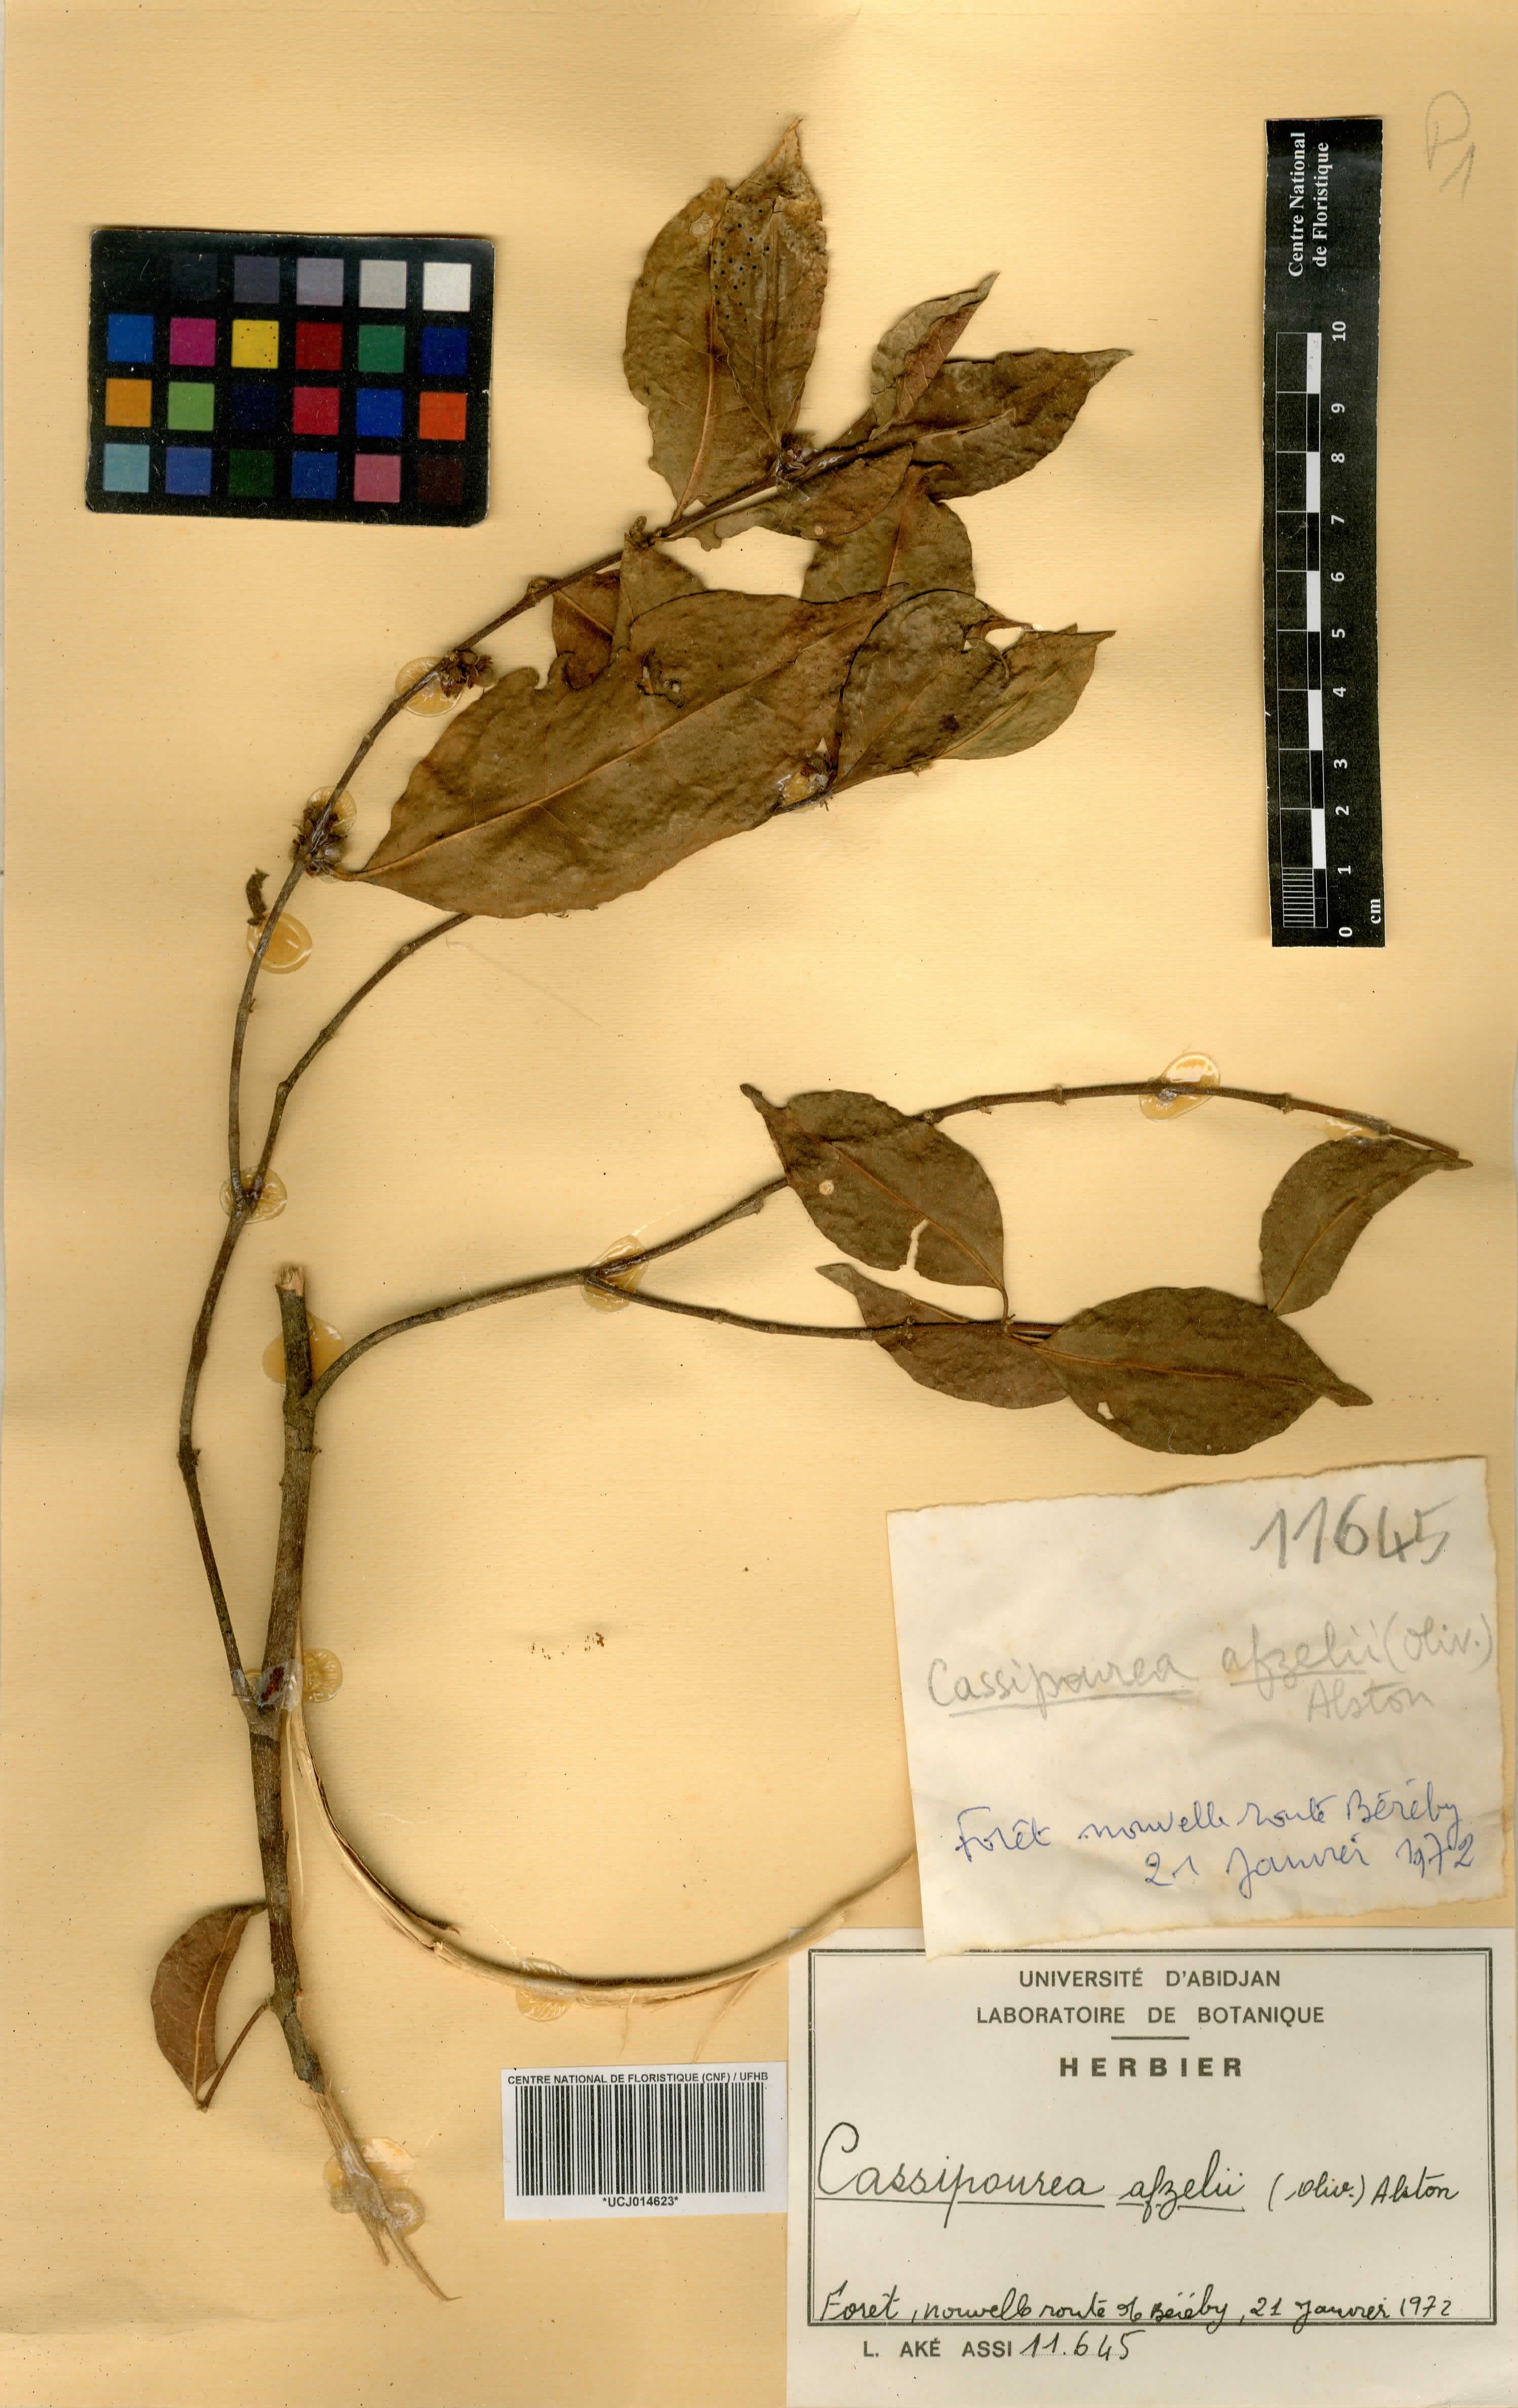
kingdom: Plantae
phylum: Tracheophyta
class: Magnoliopsida
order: Malpighiales
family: Rhizophoraceae
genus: Cassipourea
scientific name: Cassipourea afzelii
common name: Elephant tusk tree
